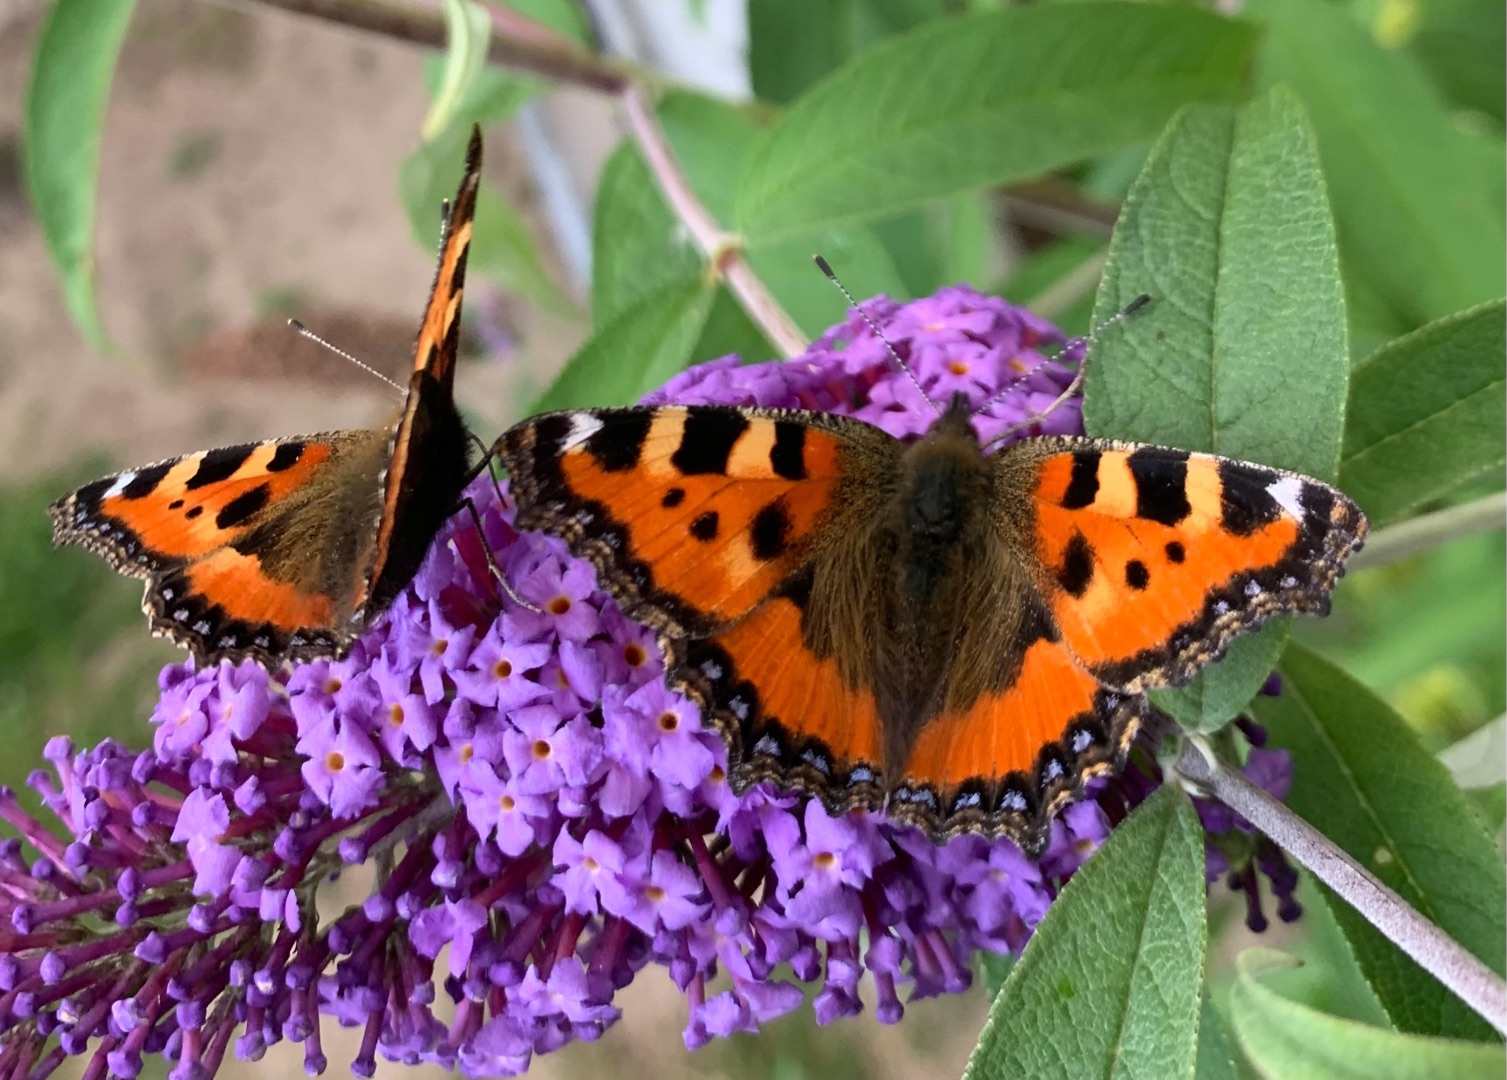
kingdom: Animalia
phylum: Arthropoda
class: Insecta
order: Lepidoptera
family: Nymphalidae
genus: Aglais
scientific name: Aglais urticae
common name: Nældens takvinge
